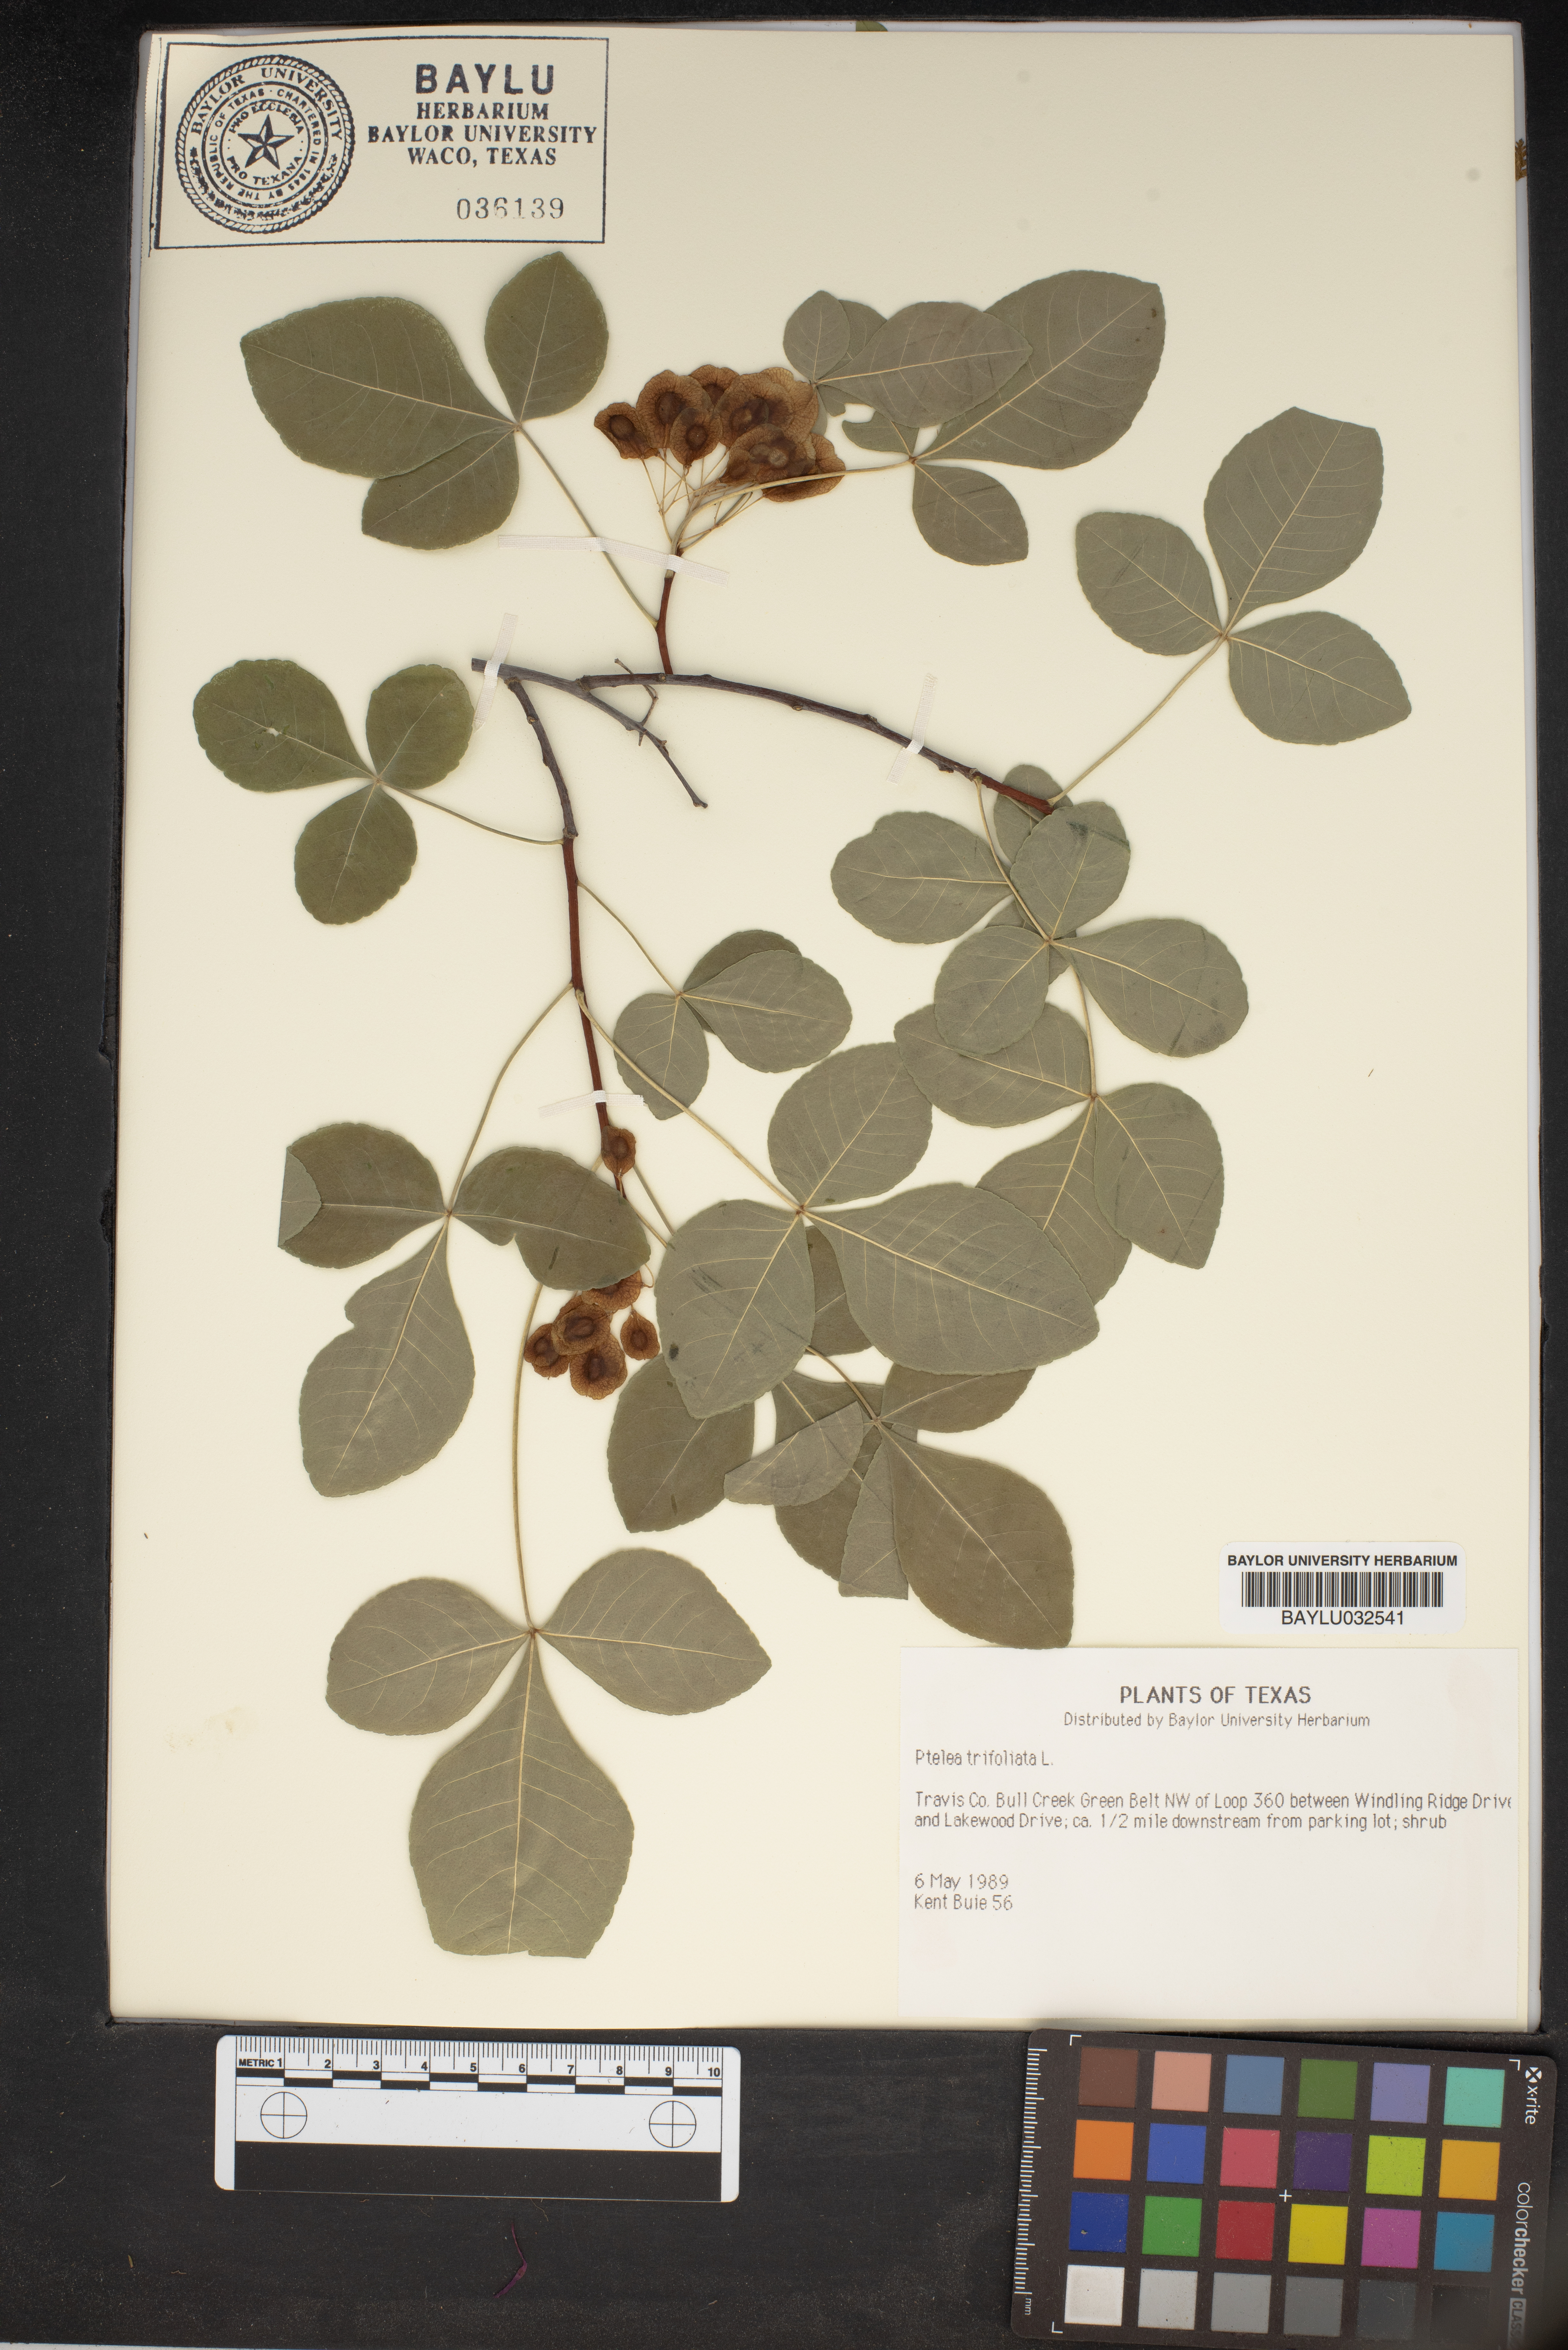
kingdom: Plantae
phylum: Tracheophyta
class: Magnoliopsida
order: Sapindales
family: Rutaceae
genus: Ptelea
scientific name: Ptelea trifoliata
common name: Common hop-tree
